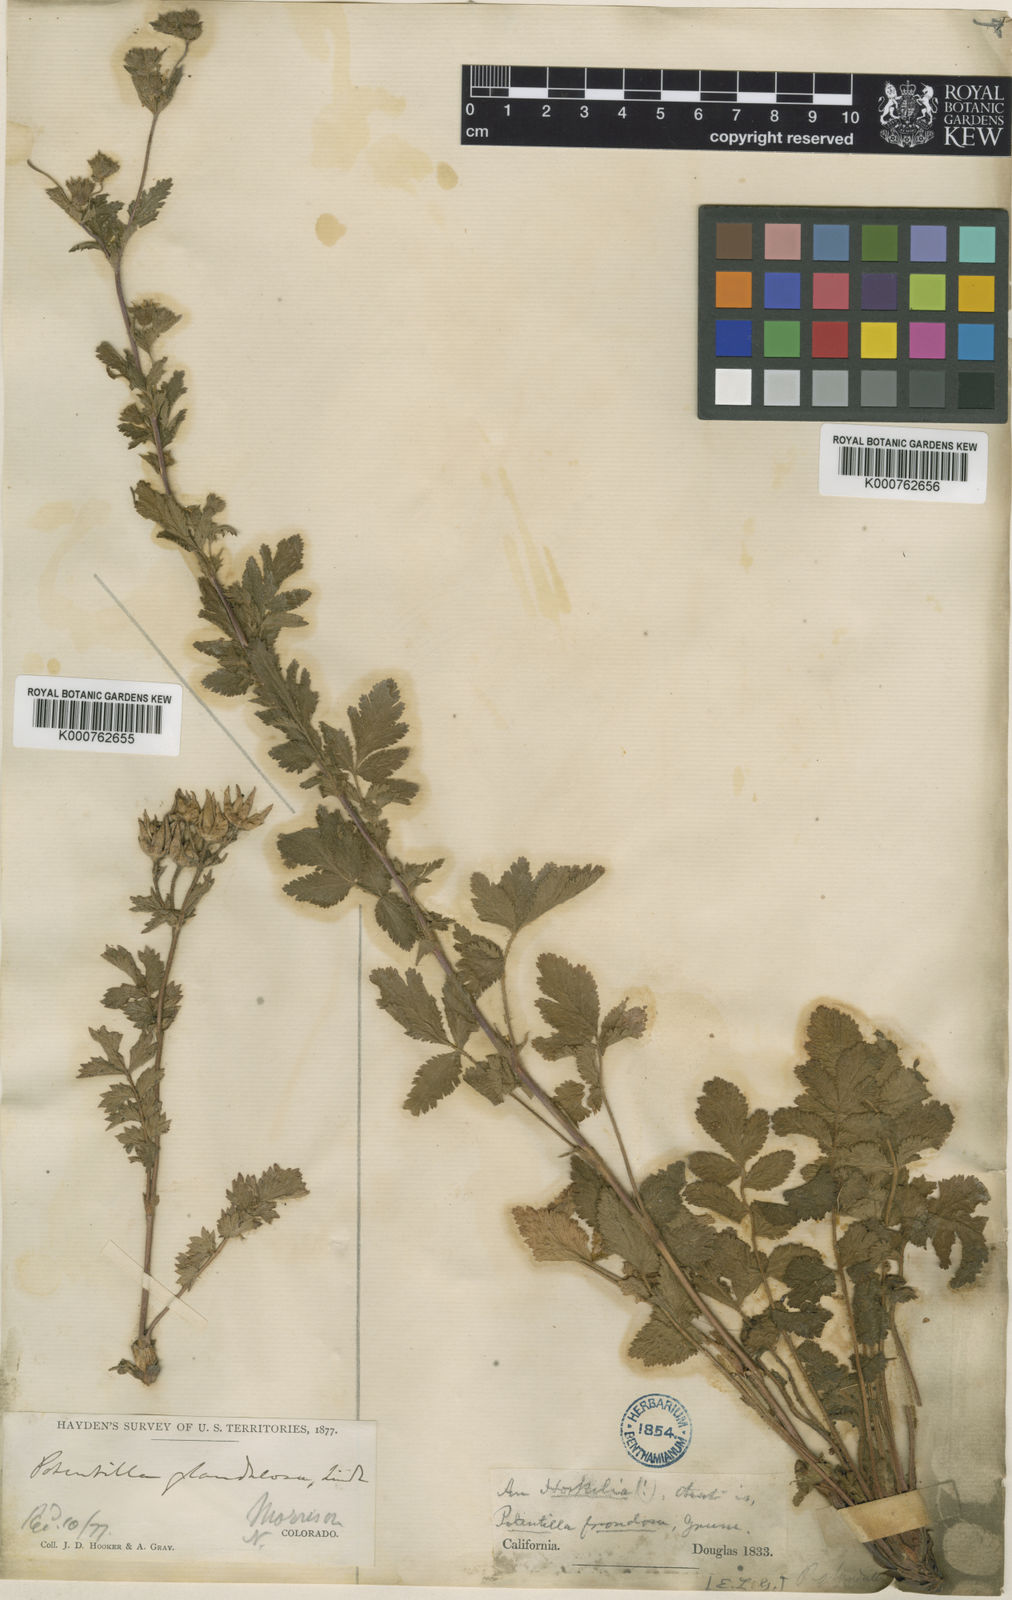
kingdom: Plantae
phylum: Tracheophyta
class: Magnoliopsida
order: Rosales
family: Rosaceae
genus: Potentilla
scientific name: Potentilla californica
